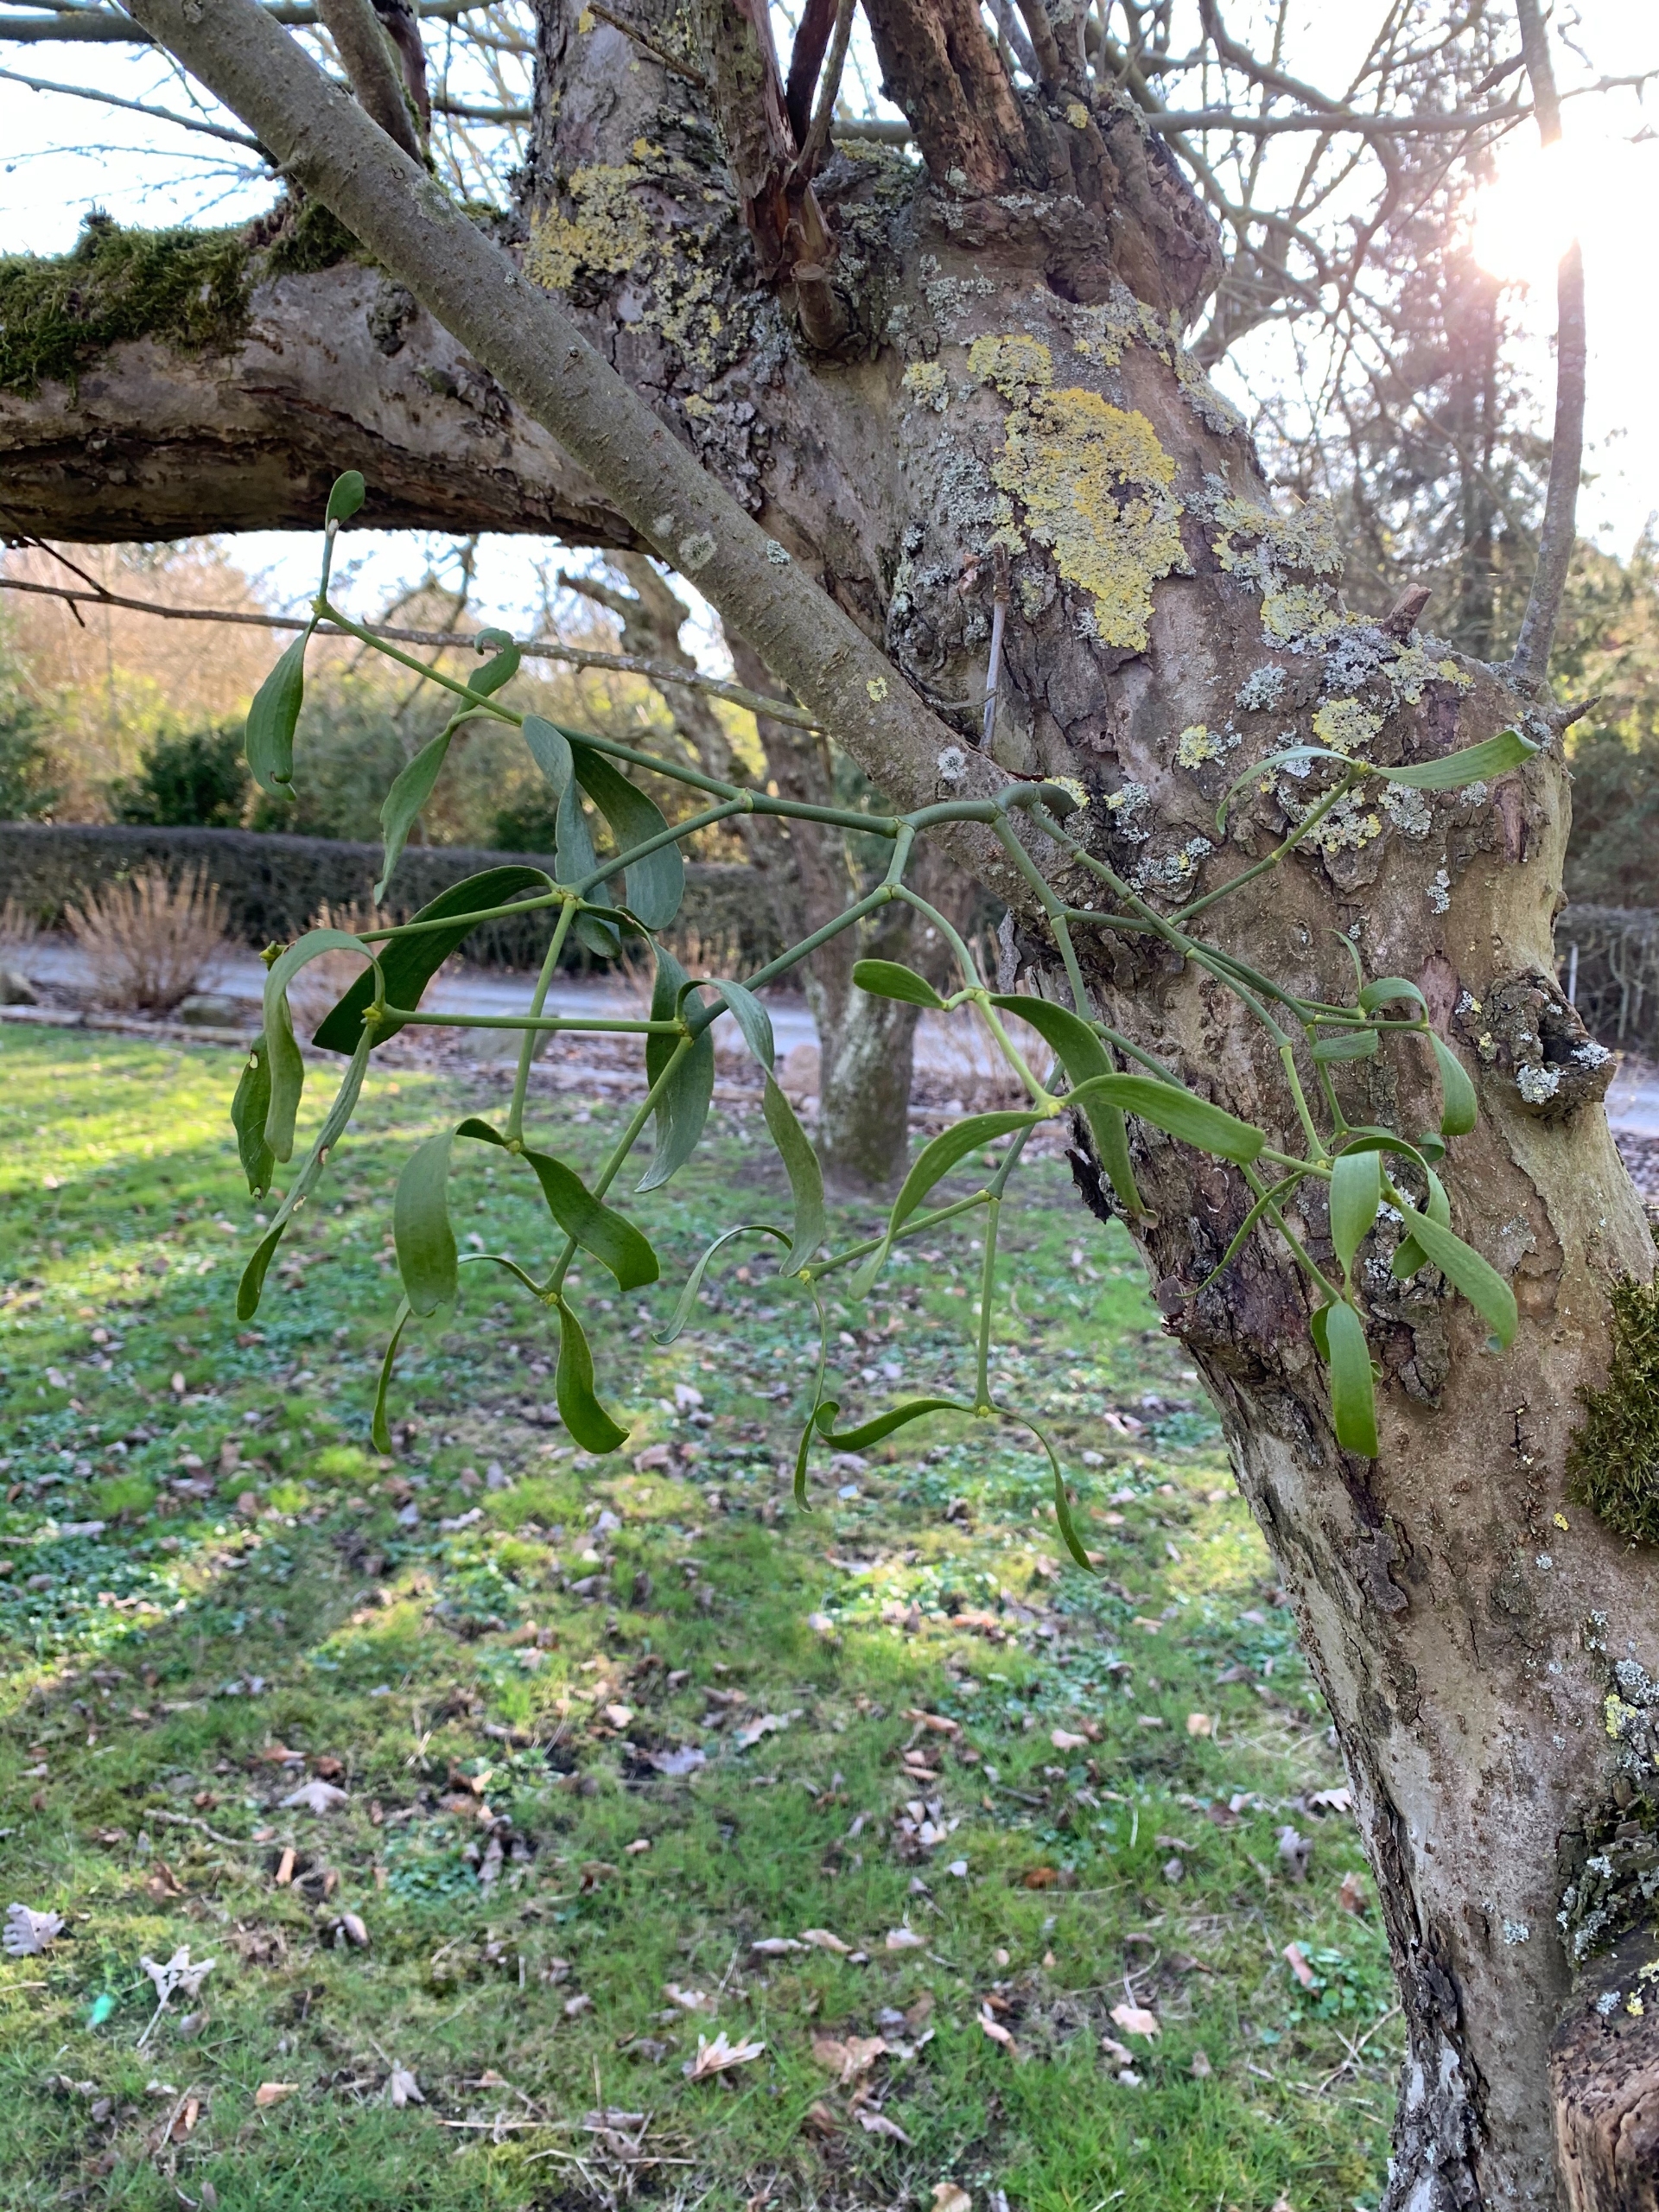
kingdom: Plantae
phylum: Tracheophyta
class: Magnoliopsida
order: Santalales
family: Viscaceae
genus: Viscum
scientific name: Viscum album
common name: Mistelten
